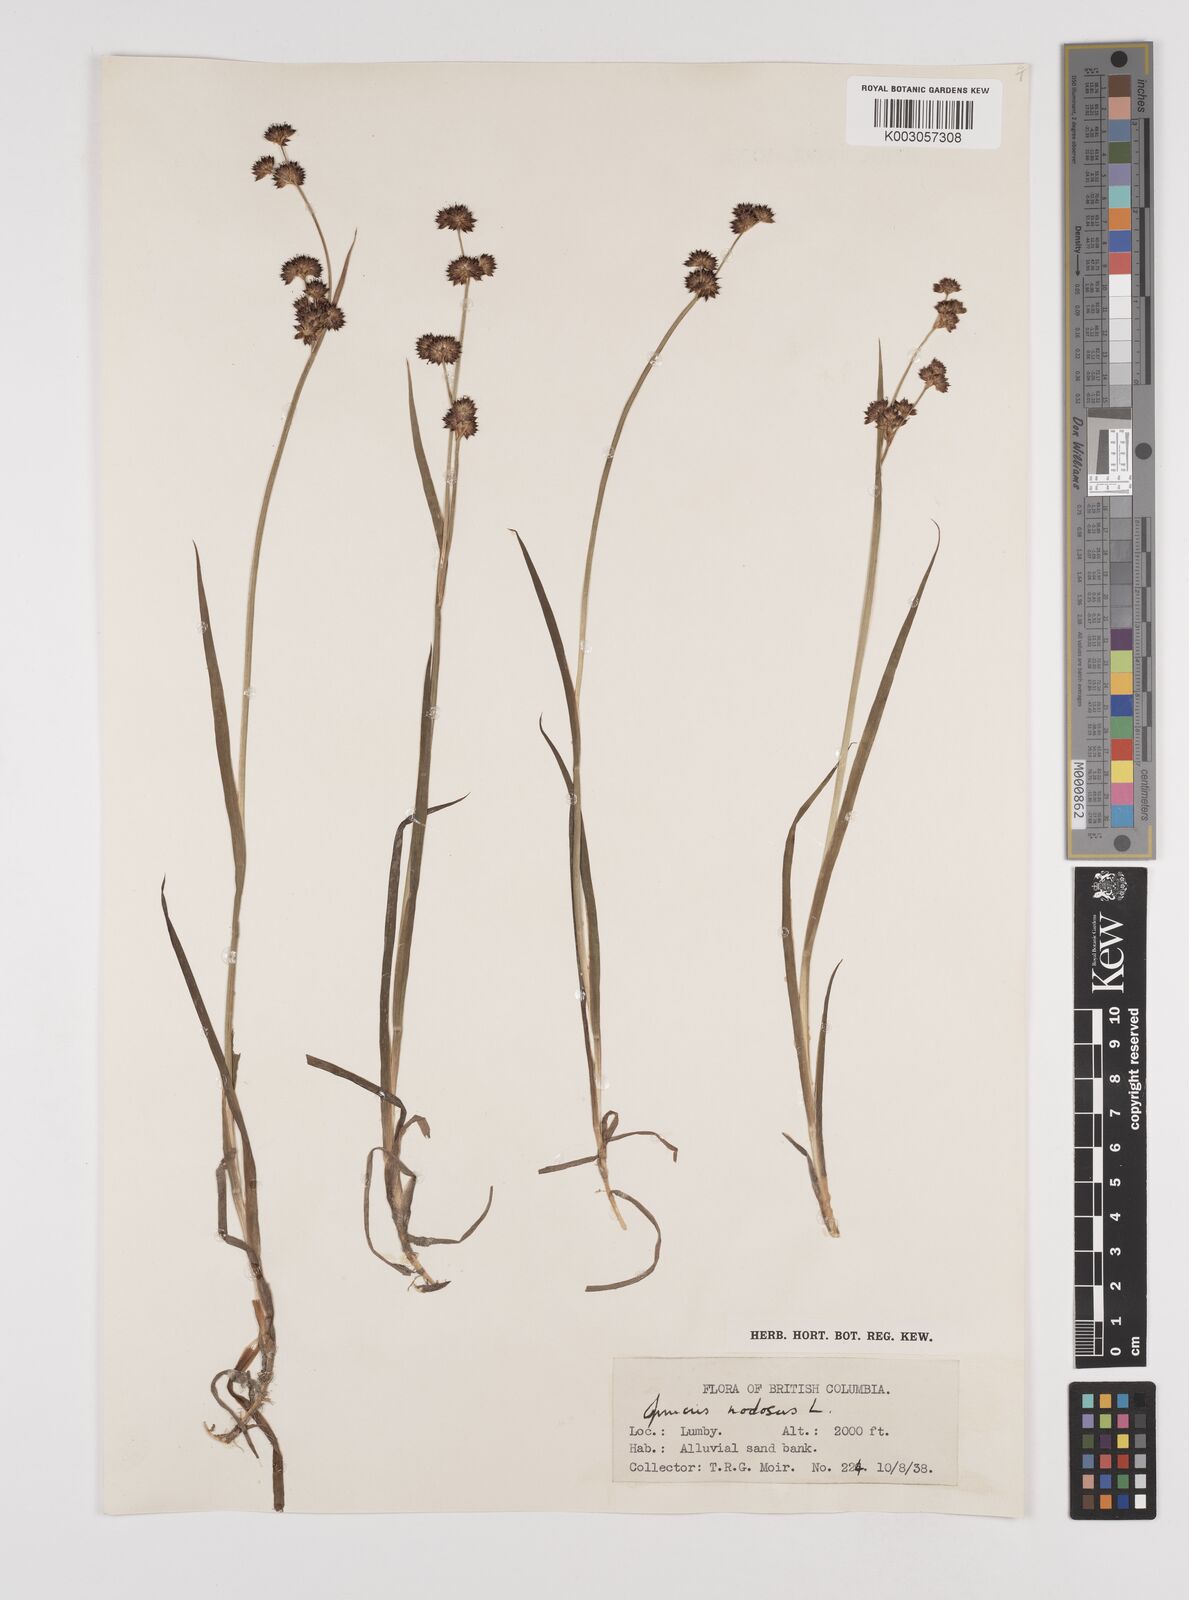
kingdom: Plantae
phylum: Tracheophyta
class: Liliopsida
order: Poales
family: Juncaceae
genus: Juncus
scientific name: Juncus nodosus
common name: Knotted rush
